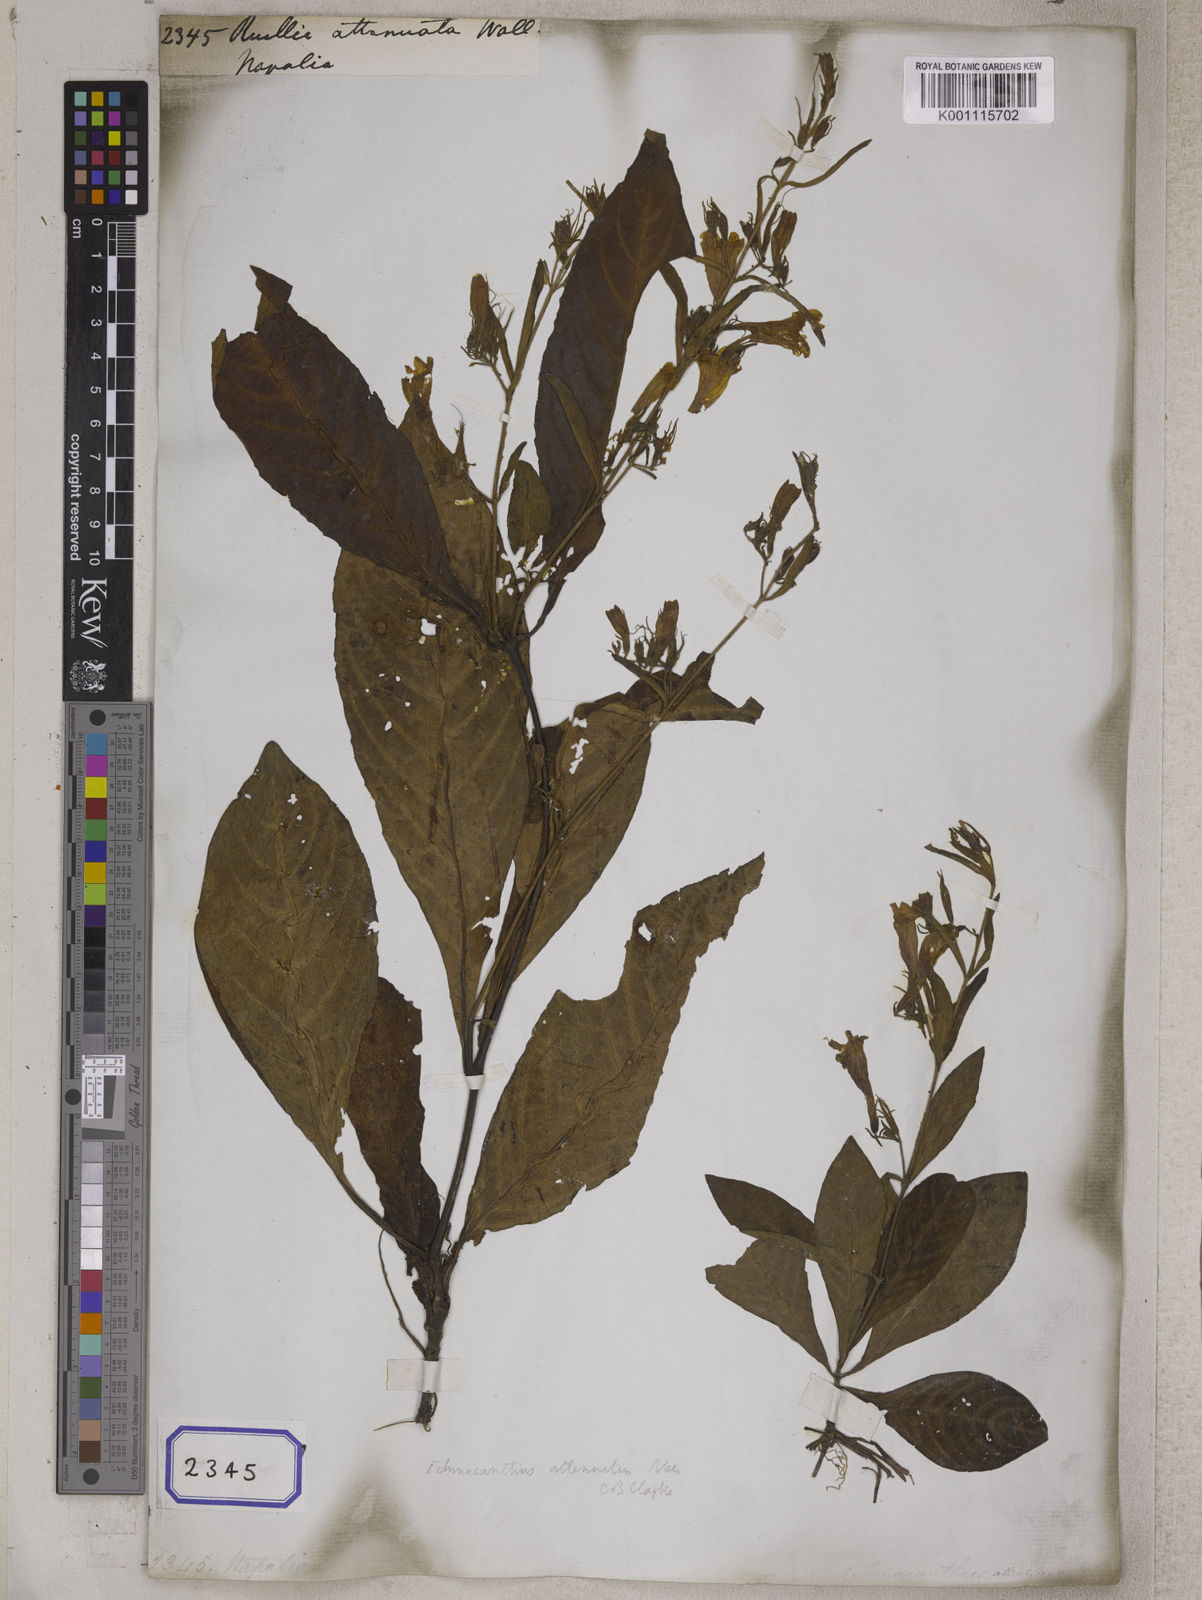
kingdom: Plantae
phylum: Tracheophyta
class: Magnoliopsida
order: Lamiales
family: Acanthaceae
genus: Ruellia
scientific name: Ruellia
